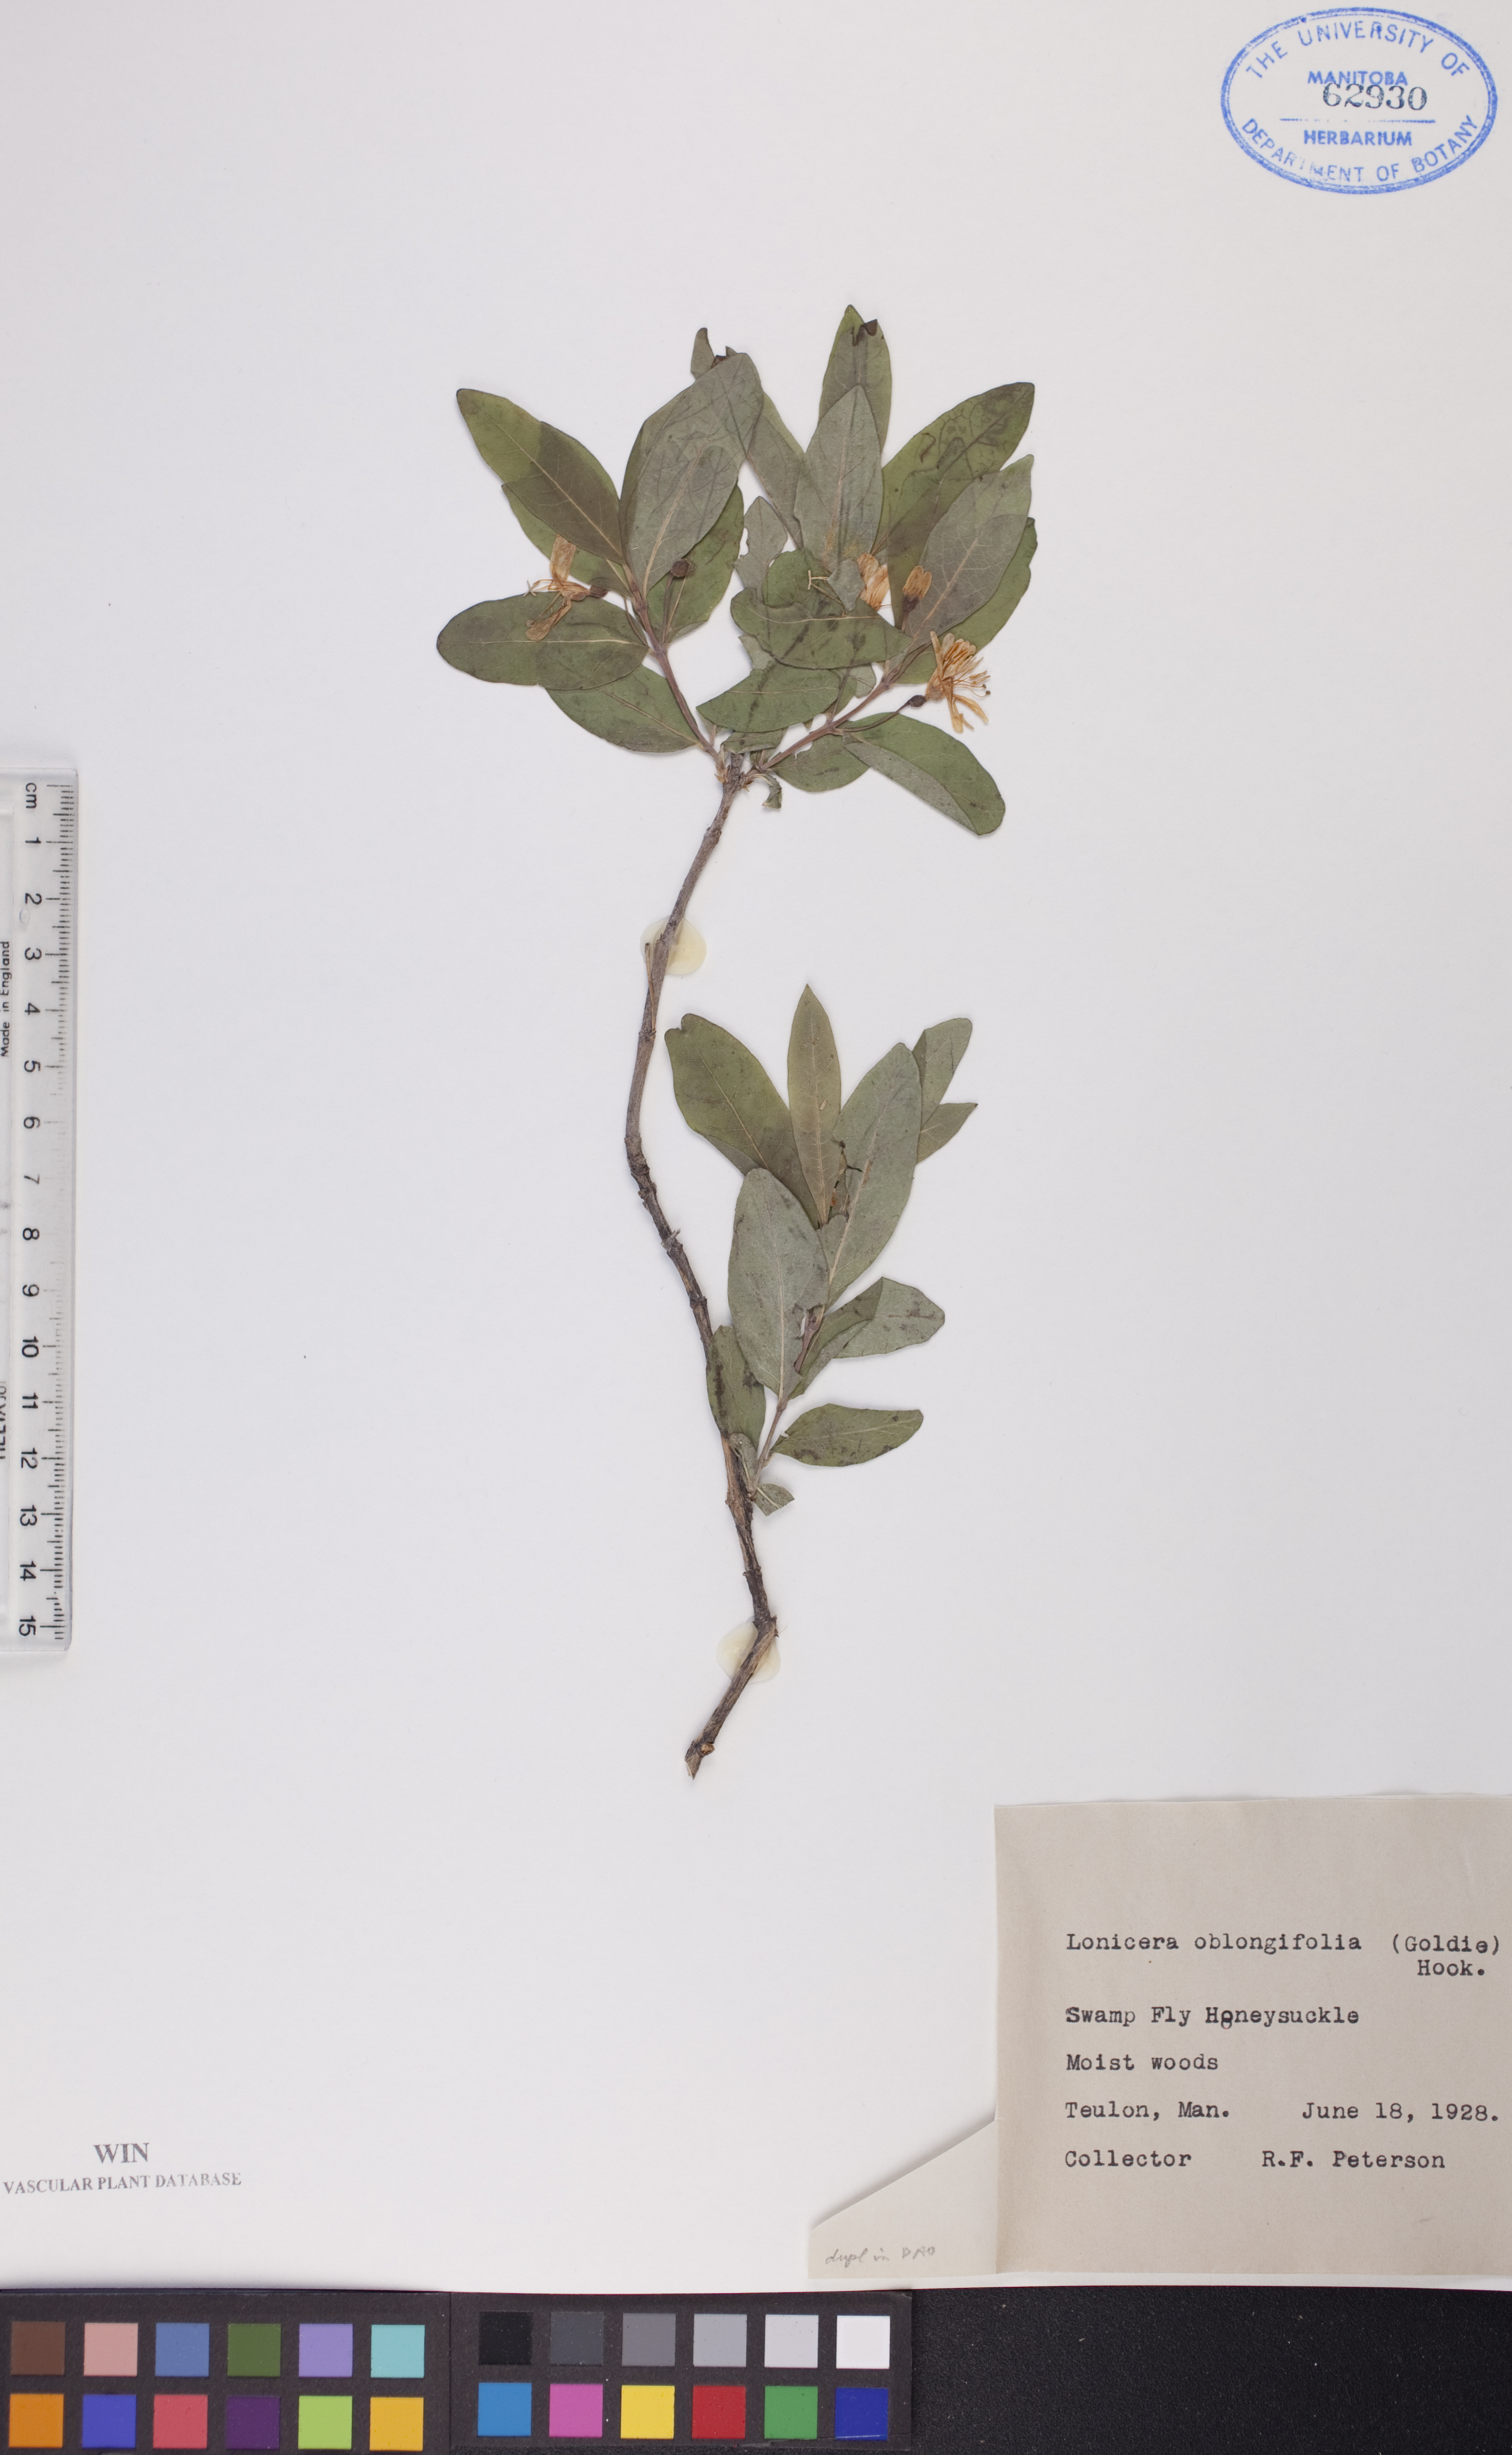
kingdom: Plantae
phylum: Tracheophyta
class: Magnoliopsida
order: Dipsacales
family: Caprifoliaceae
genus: Lonicera
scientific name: Lonicera oblongifolia
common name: Swamp fly honeysuckle
